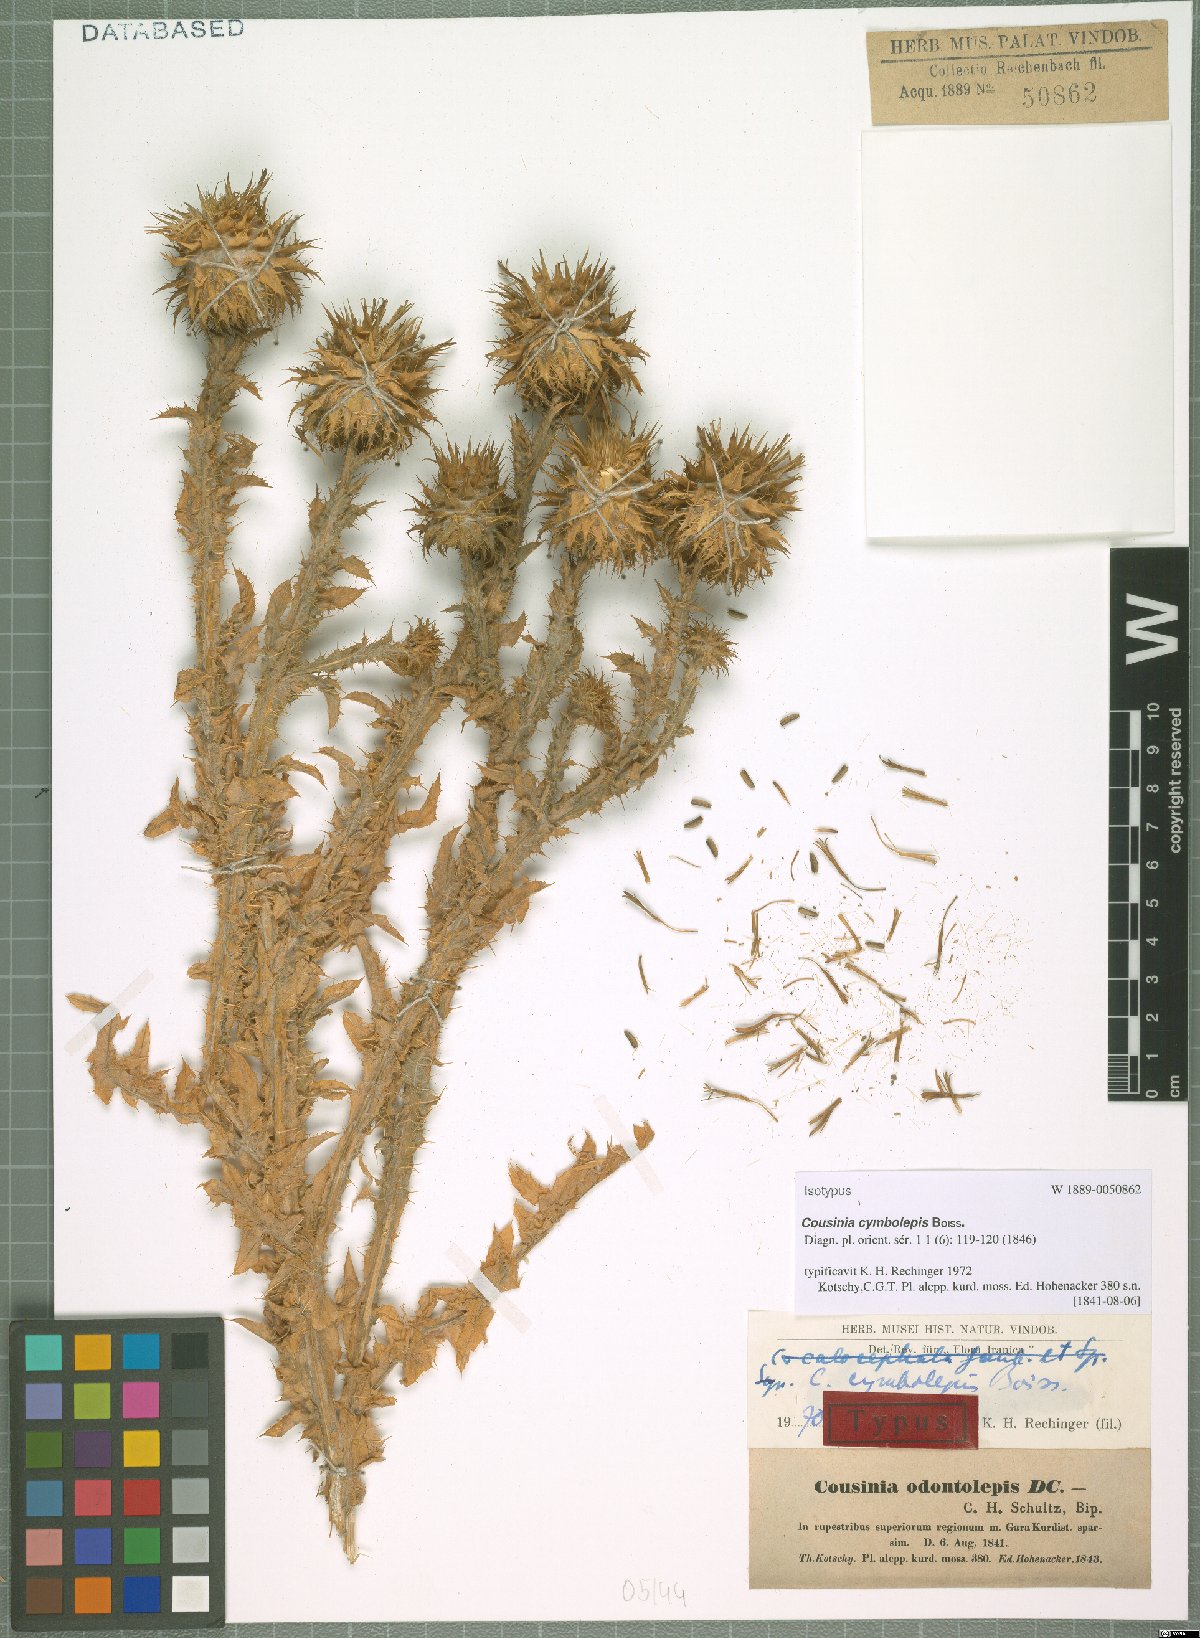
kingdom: Plantae
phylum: Tracheophyta
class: Magnoliopsida
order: Asterales
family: Asteraceae
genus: Cousinia
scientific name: Cousinia odontolepis
